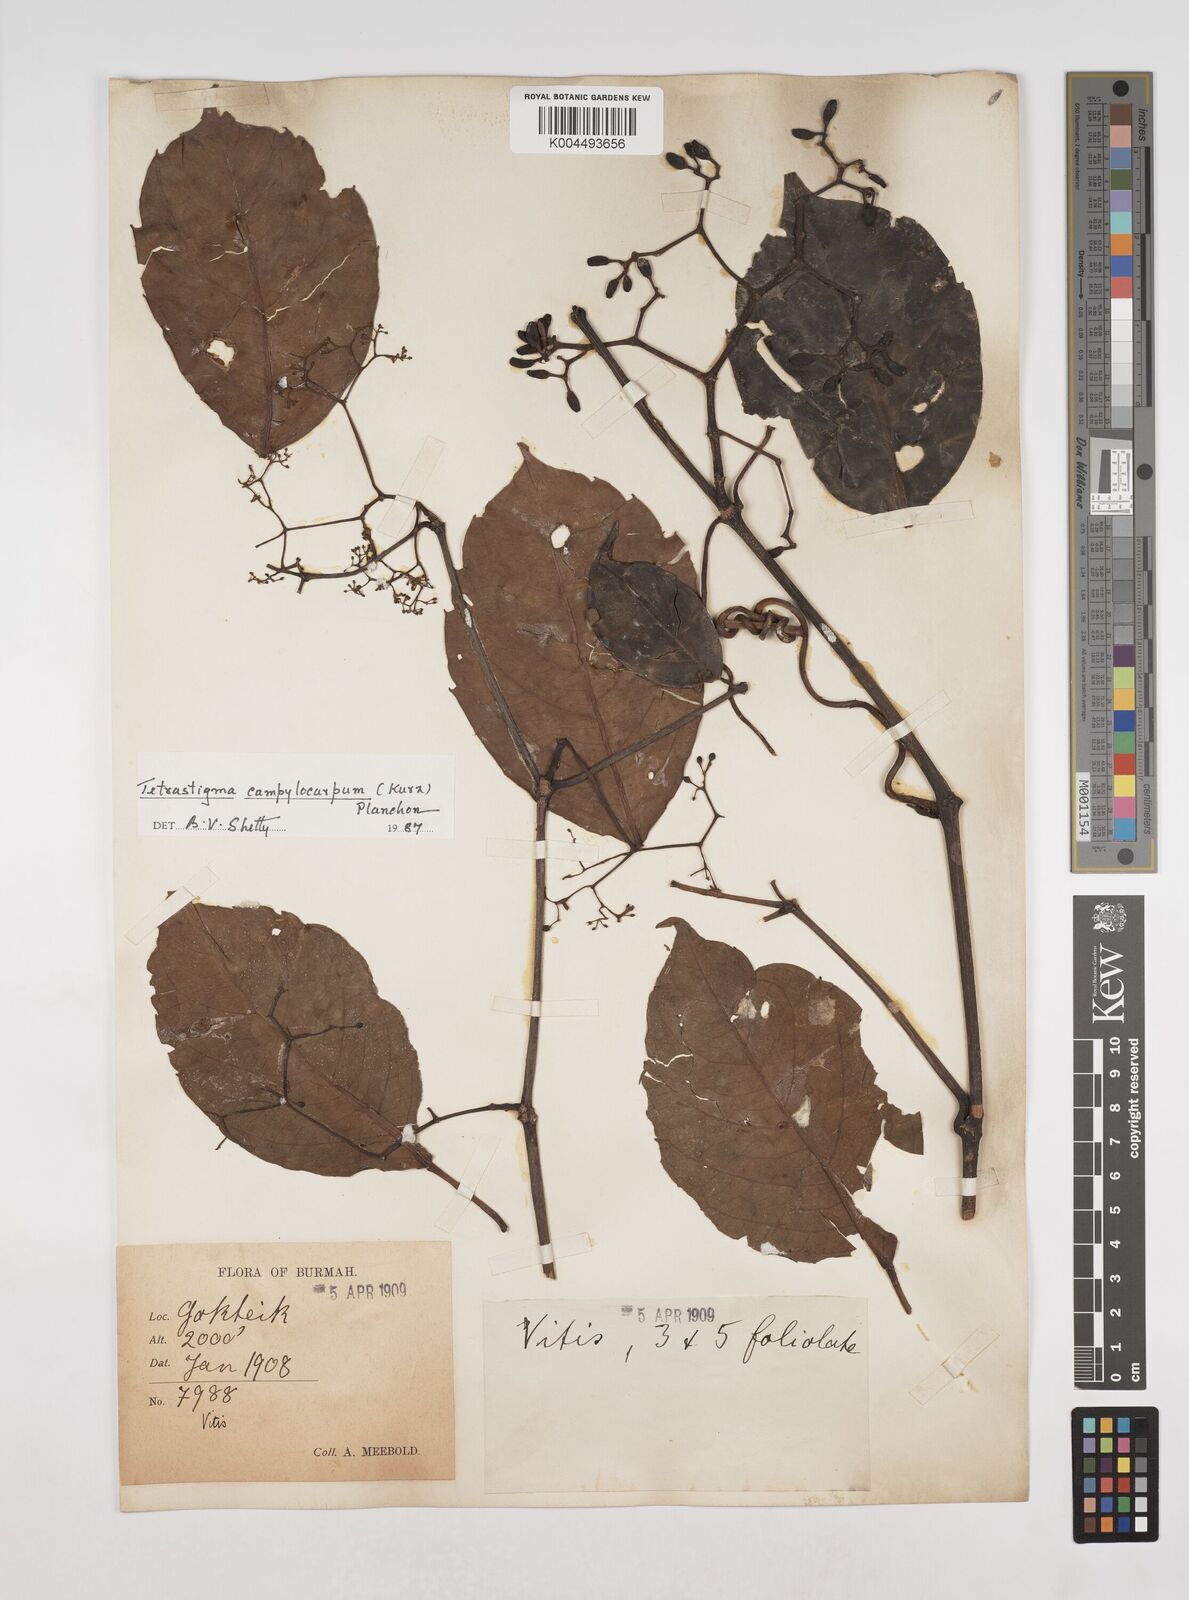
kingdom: Plantae
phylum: Tracheophyta
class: Magnoliopsida
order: Vitales
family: Vitaceae
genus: Tetrastigma
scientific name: Tetrastigma campylocarpum
